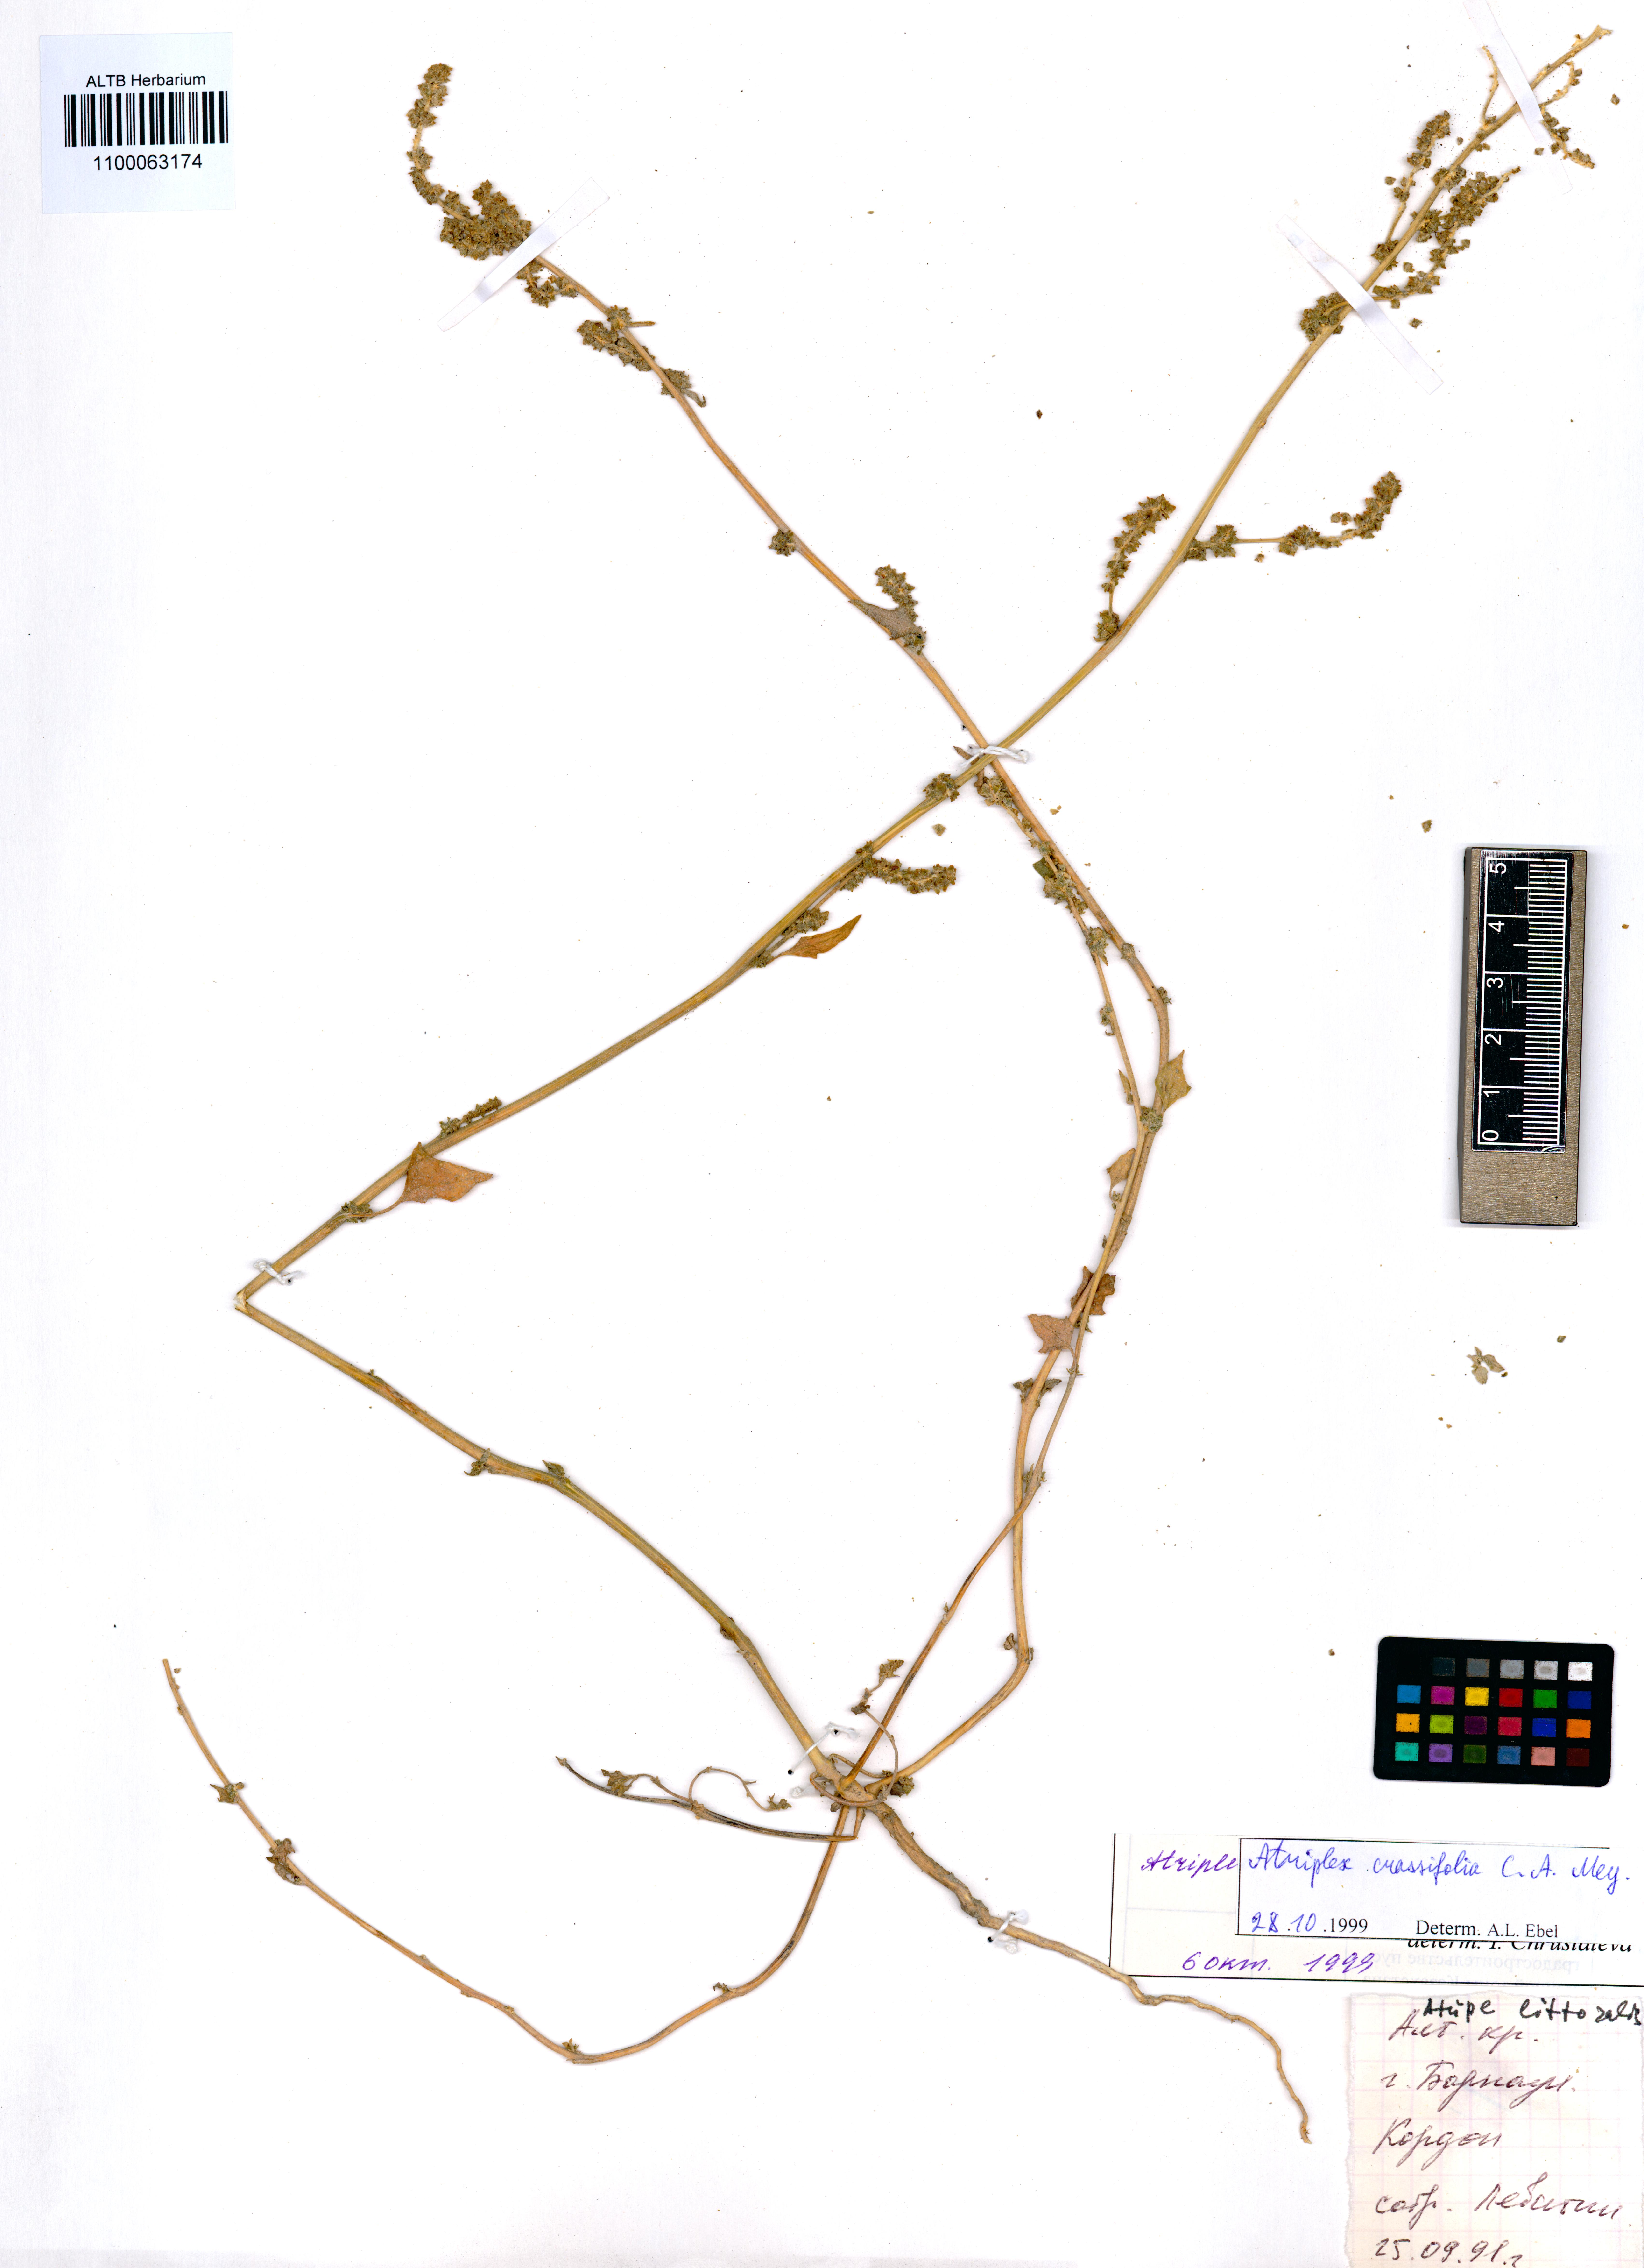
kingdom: Plantae
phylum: Tracheophyta
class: Magnoliopsida
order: Caryophyllales
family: Amaranthaceae
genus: Atriplex
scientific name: Atriplex crassifolia
